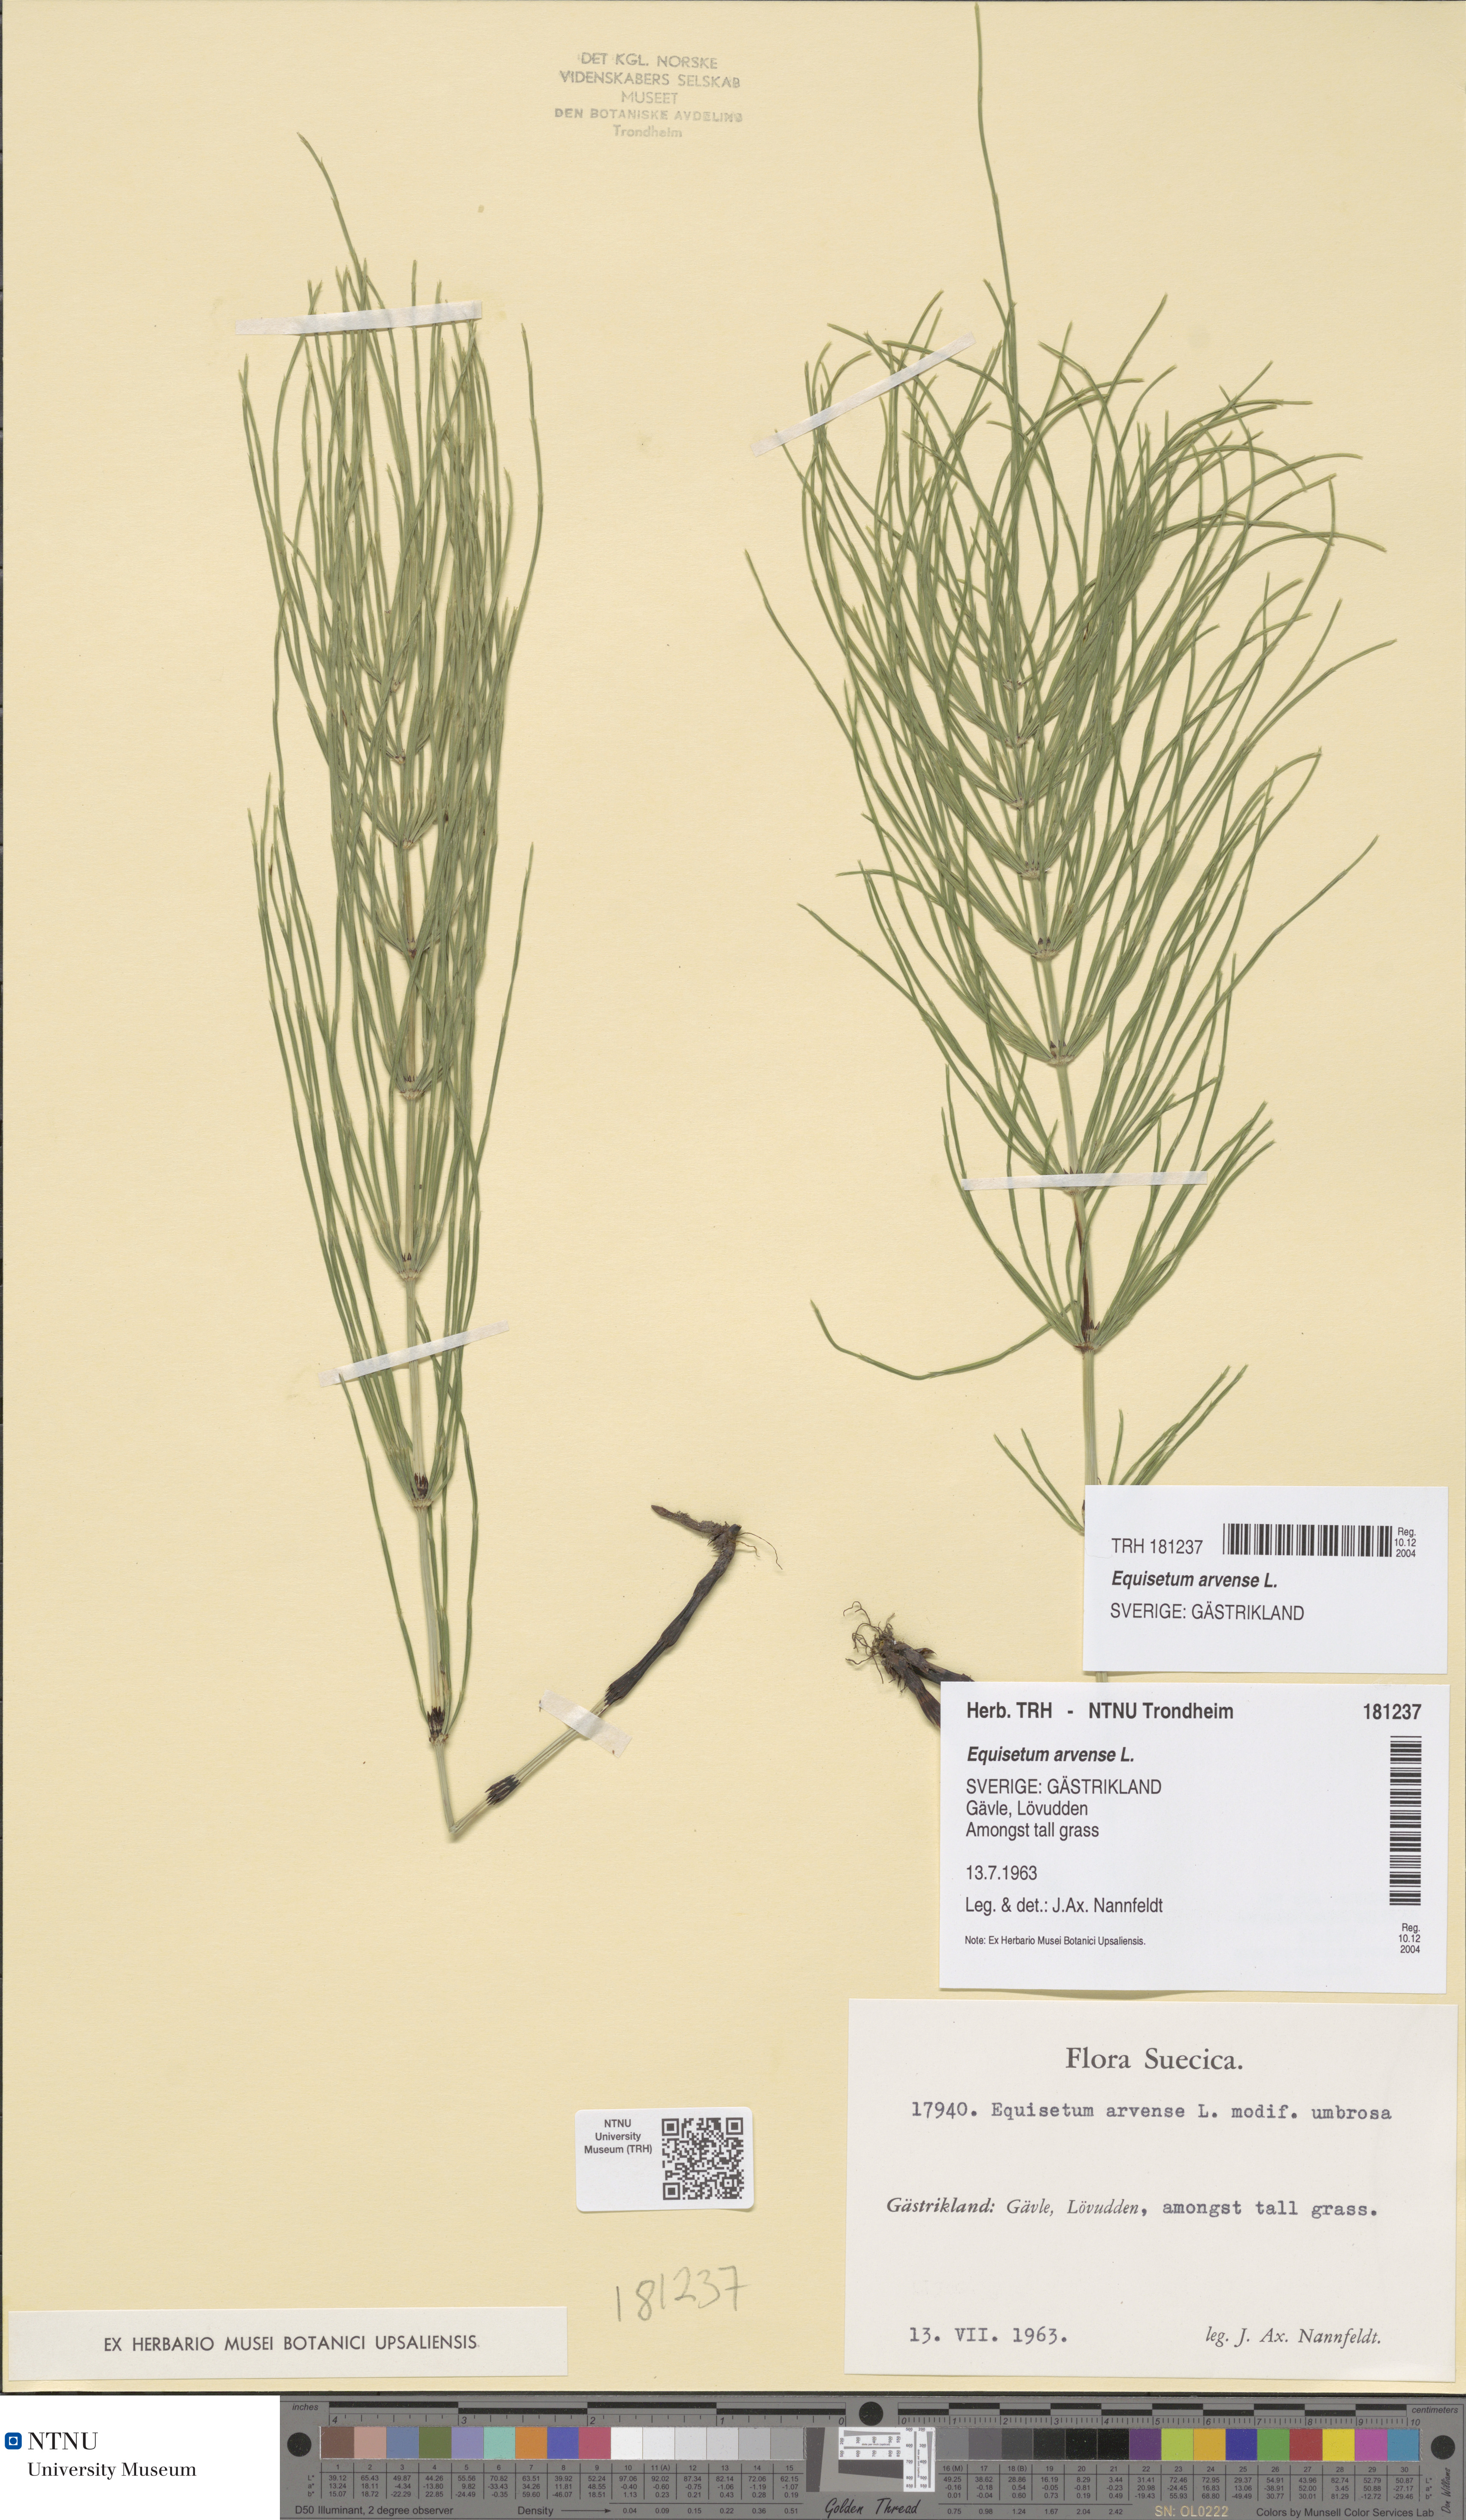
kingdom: Plantae
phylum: Tracheophyta
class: Polypodiopsida
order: Equisetales
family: Equisetaceae
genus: Equisetum
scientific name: Equisetum arvense
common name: Field horsetail
